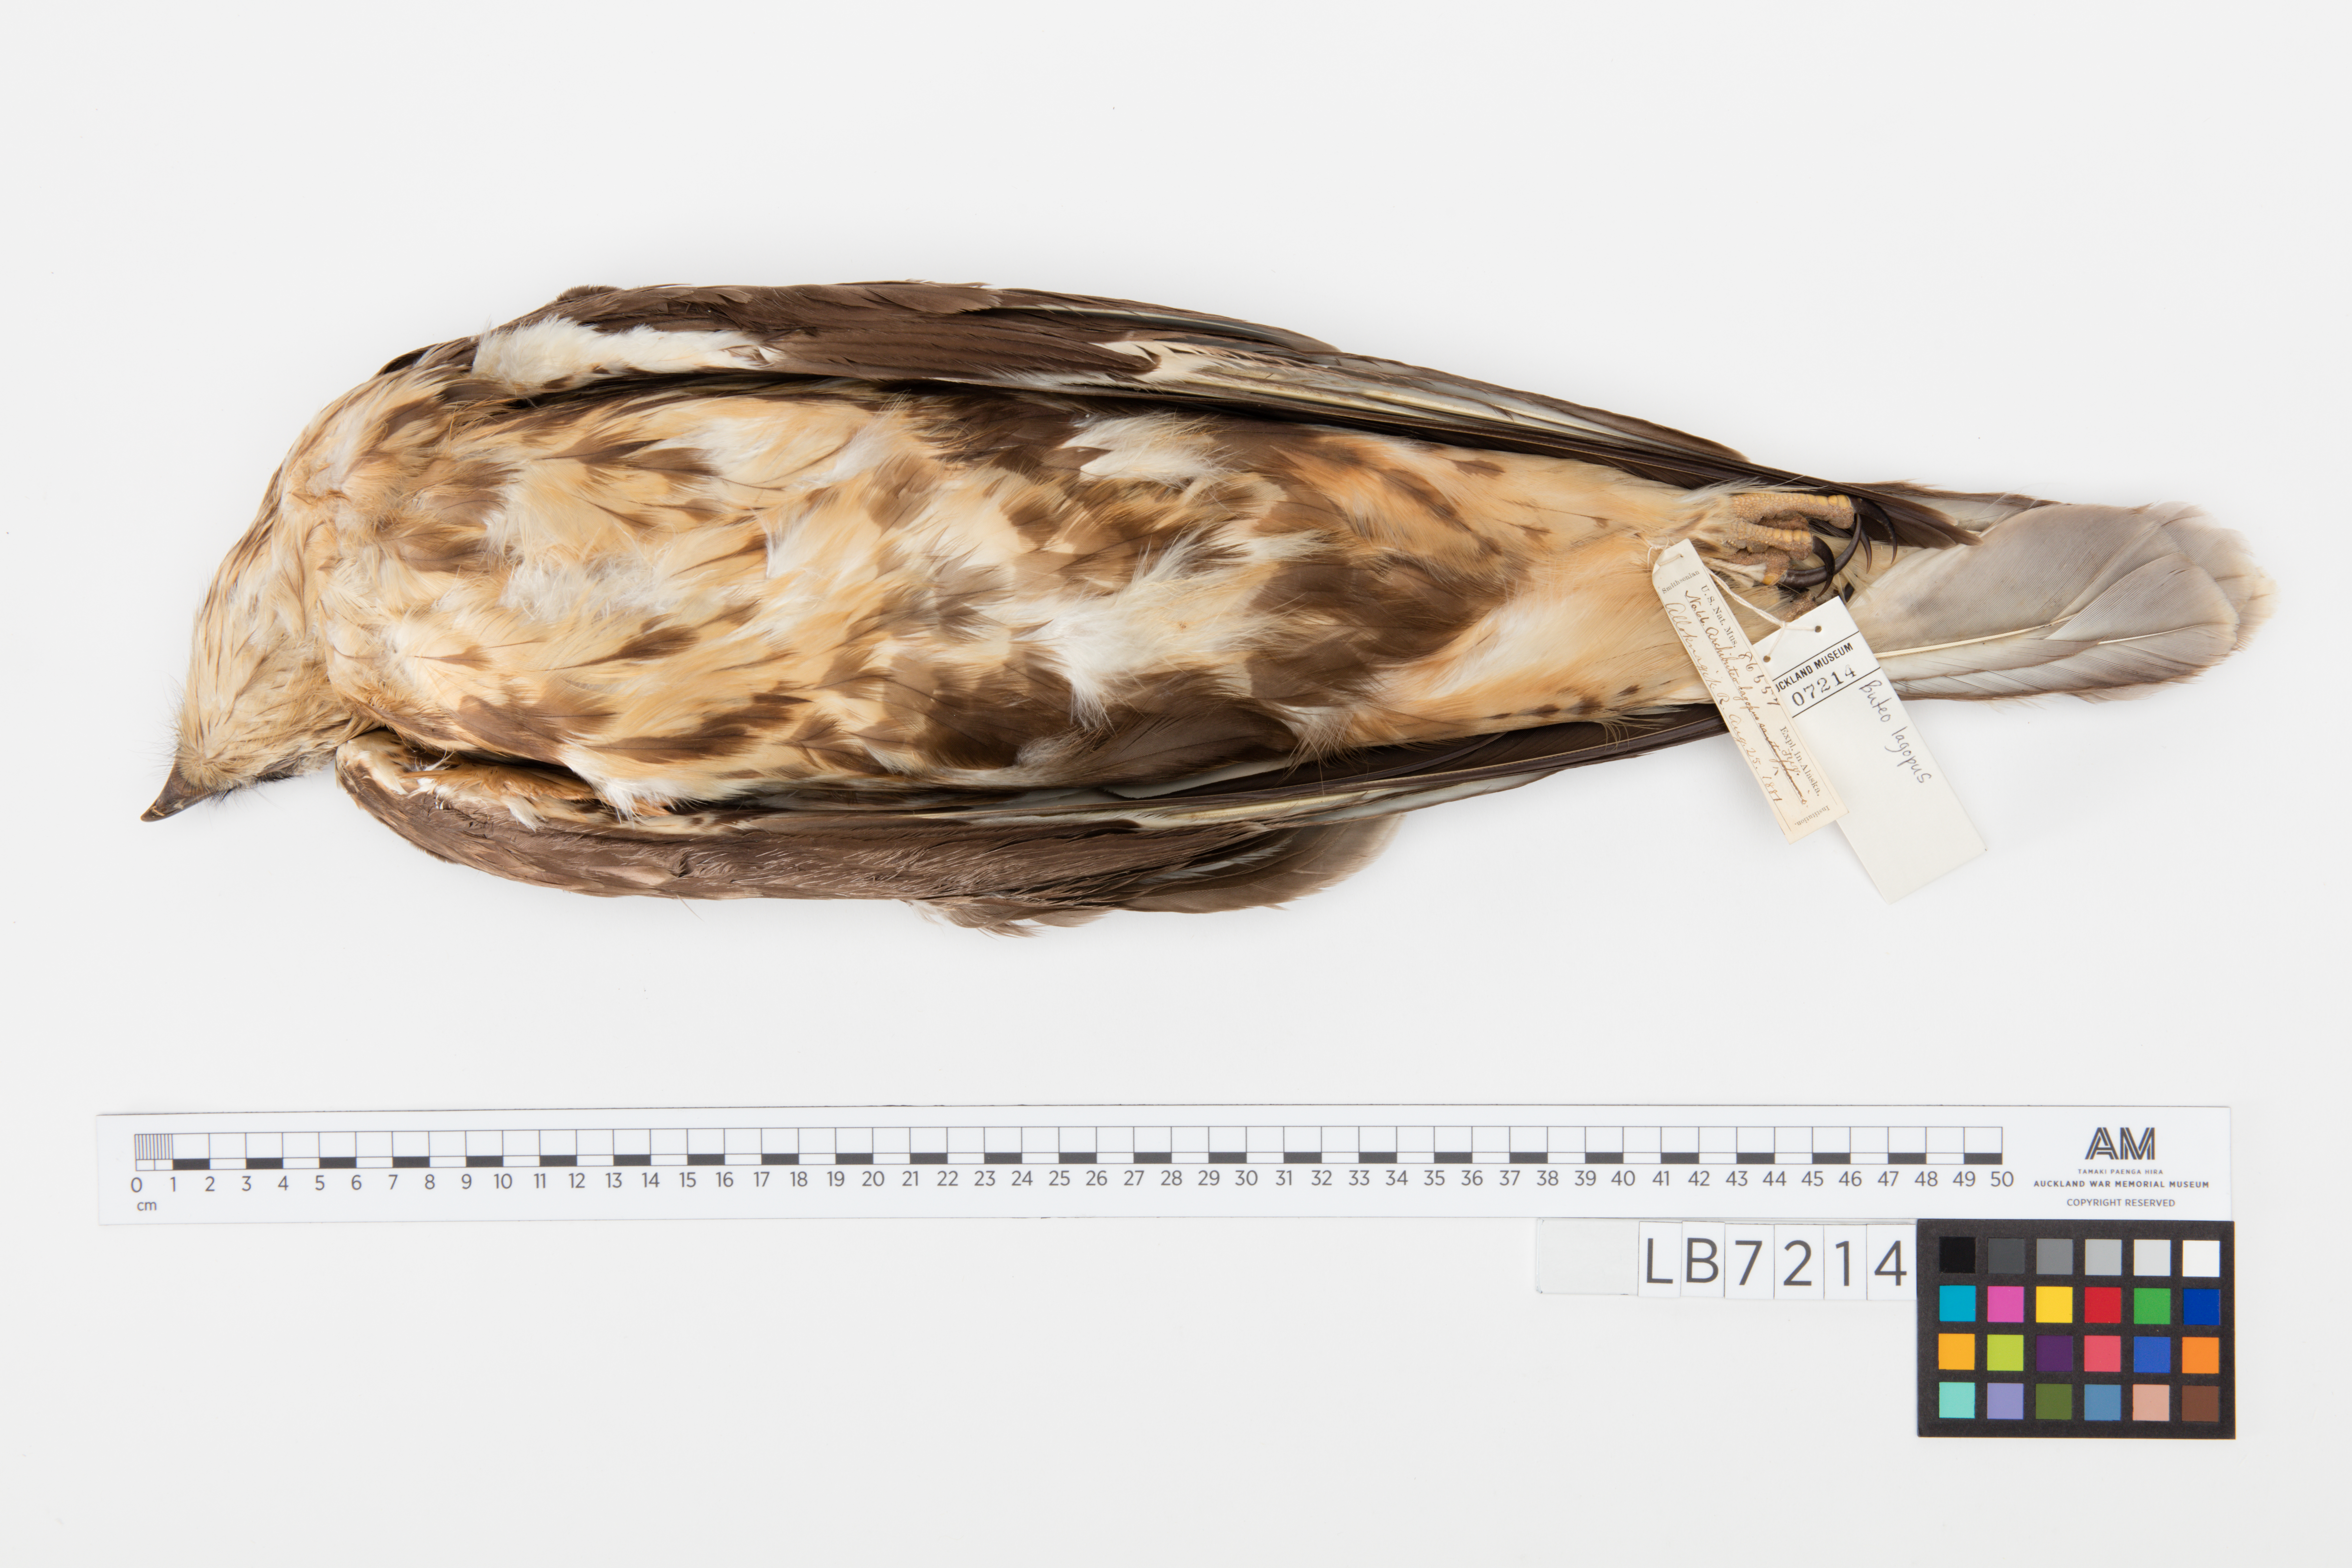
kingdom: Animalia
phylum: Chordata
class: Aves
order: Accipitriformes
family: Accipitridae
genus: Buteo
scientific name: Buteo lagopus
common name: Rough-legged buzzard
